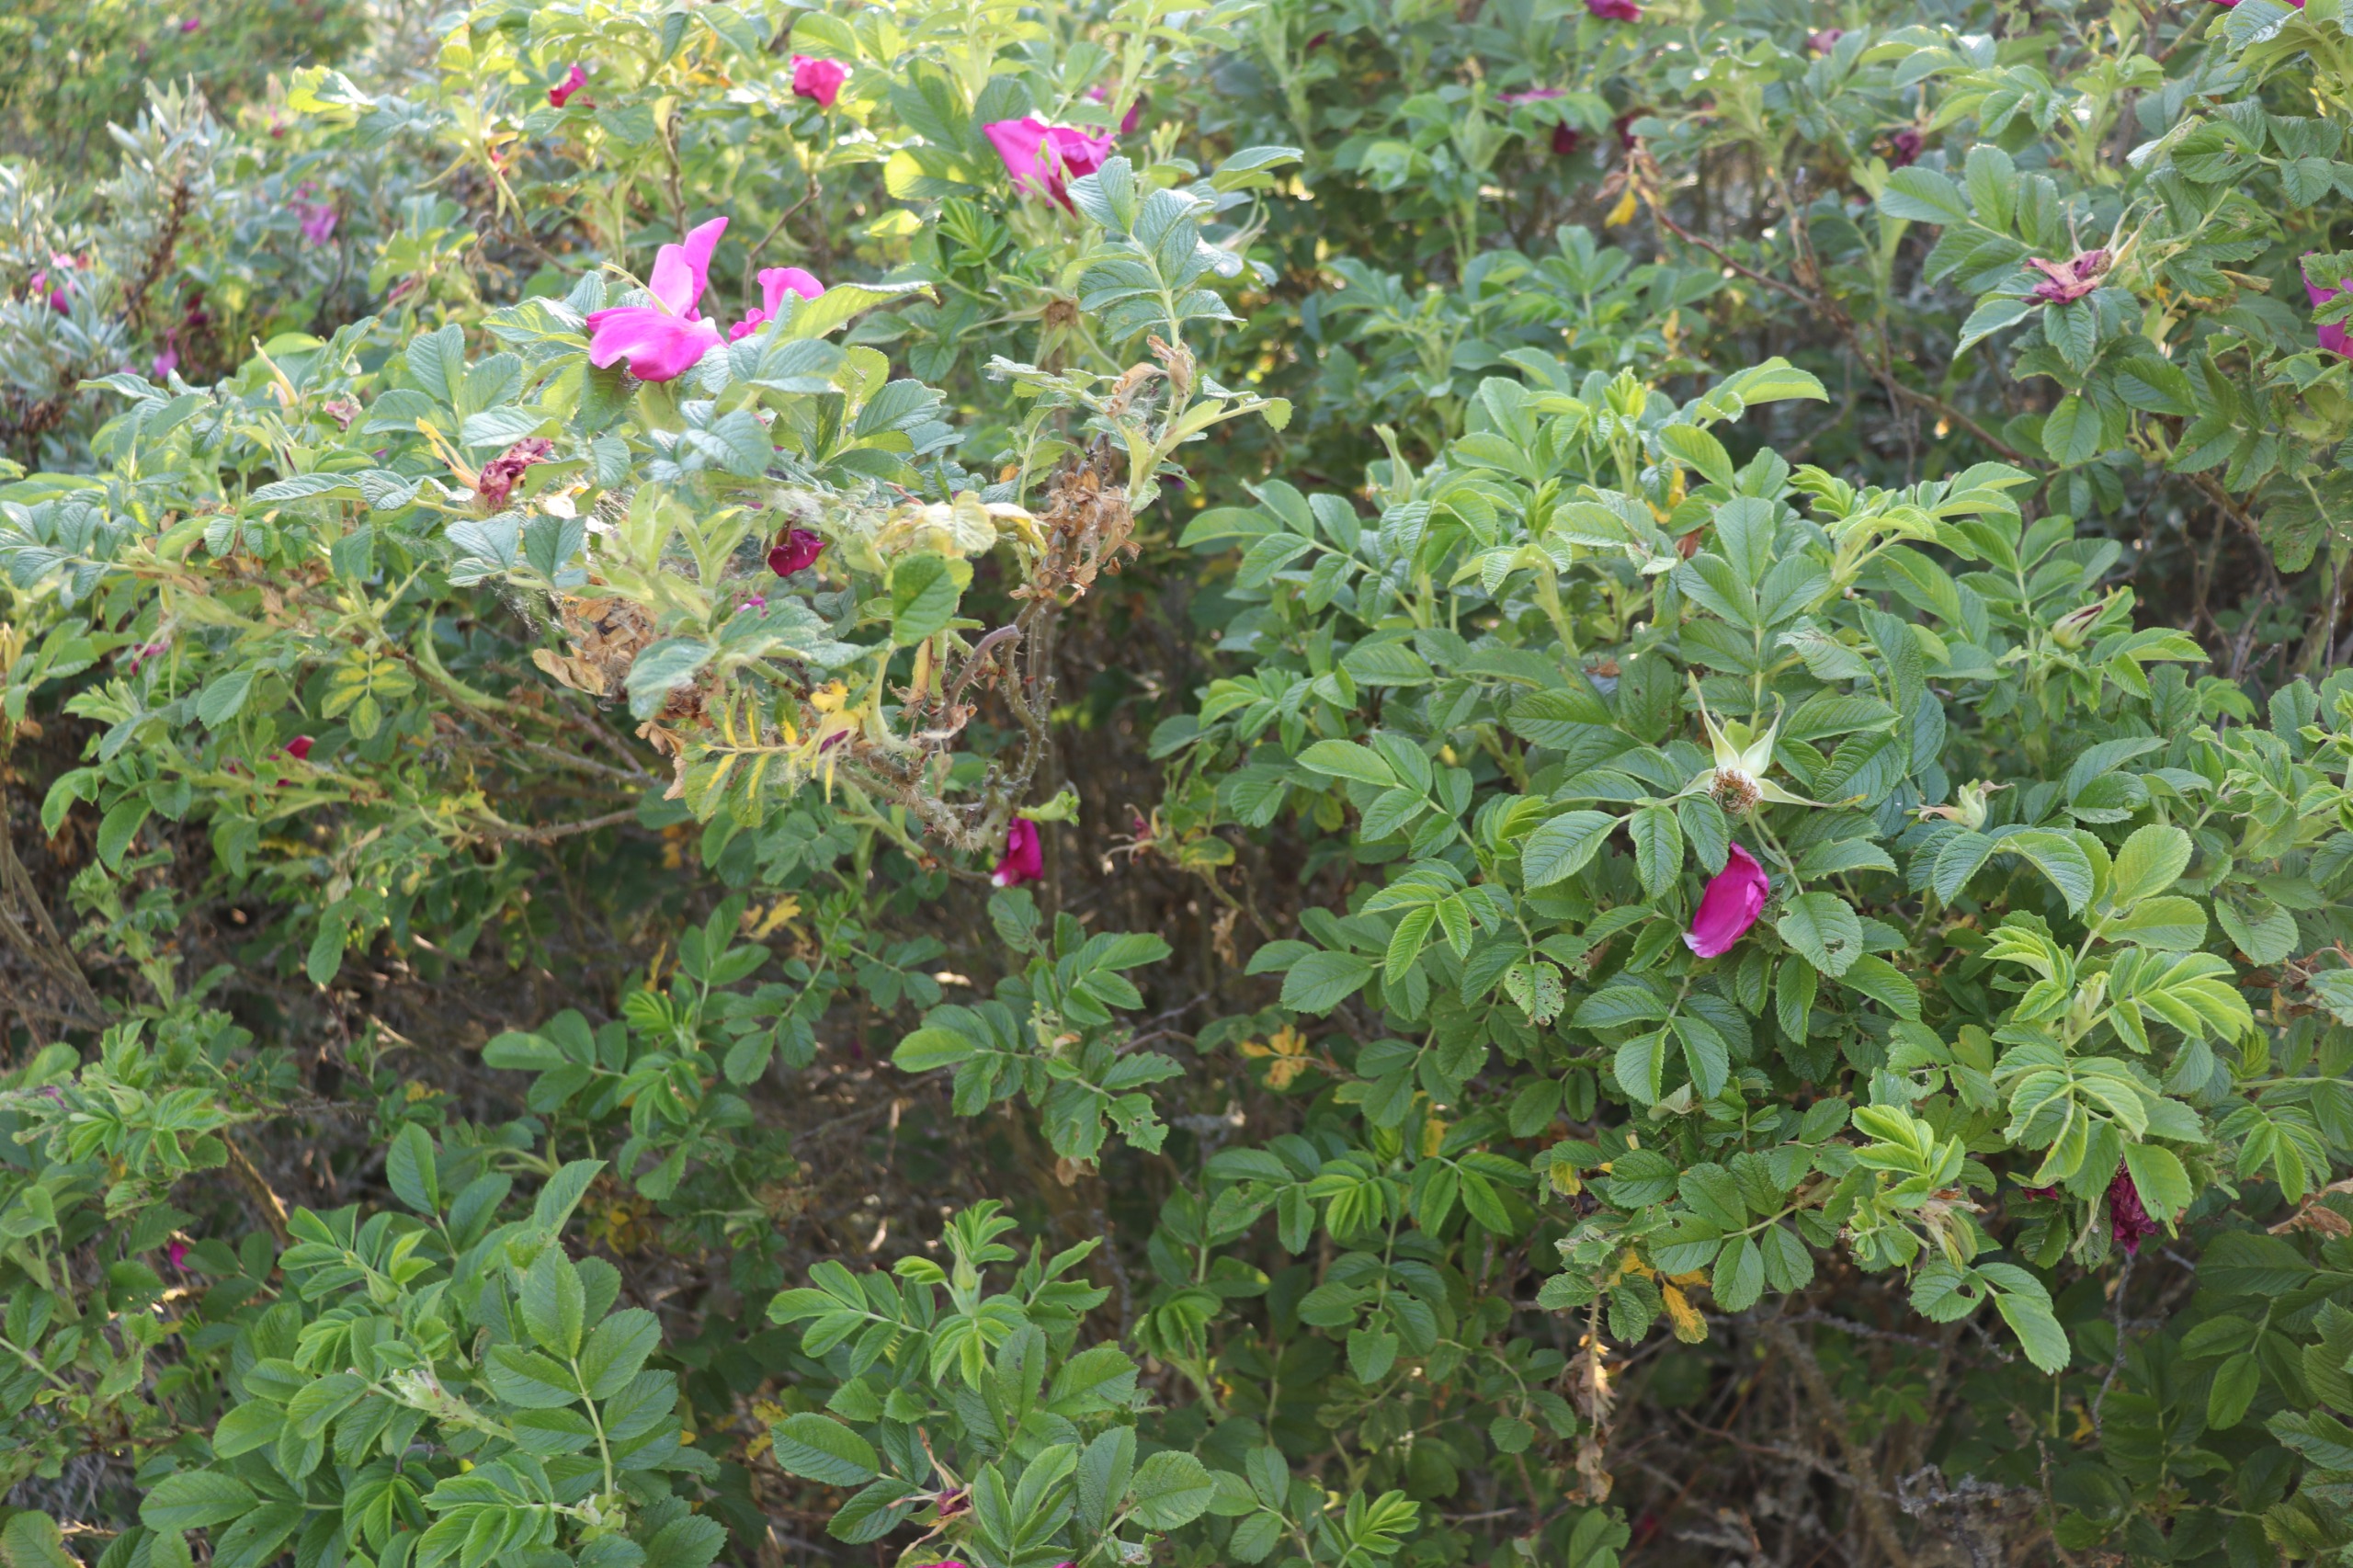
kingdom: Plantae
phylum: Tracheophyta
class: Magnoliopsida
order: Rosales
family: Rosaceae
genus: Rosa
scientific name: Rosa rugosa
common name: Rynket rose
